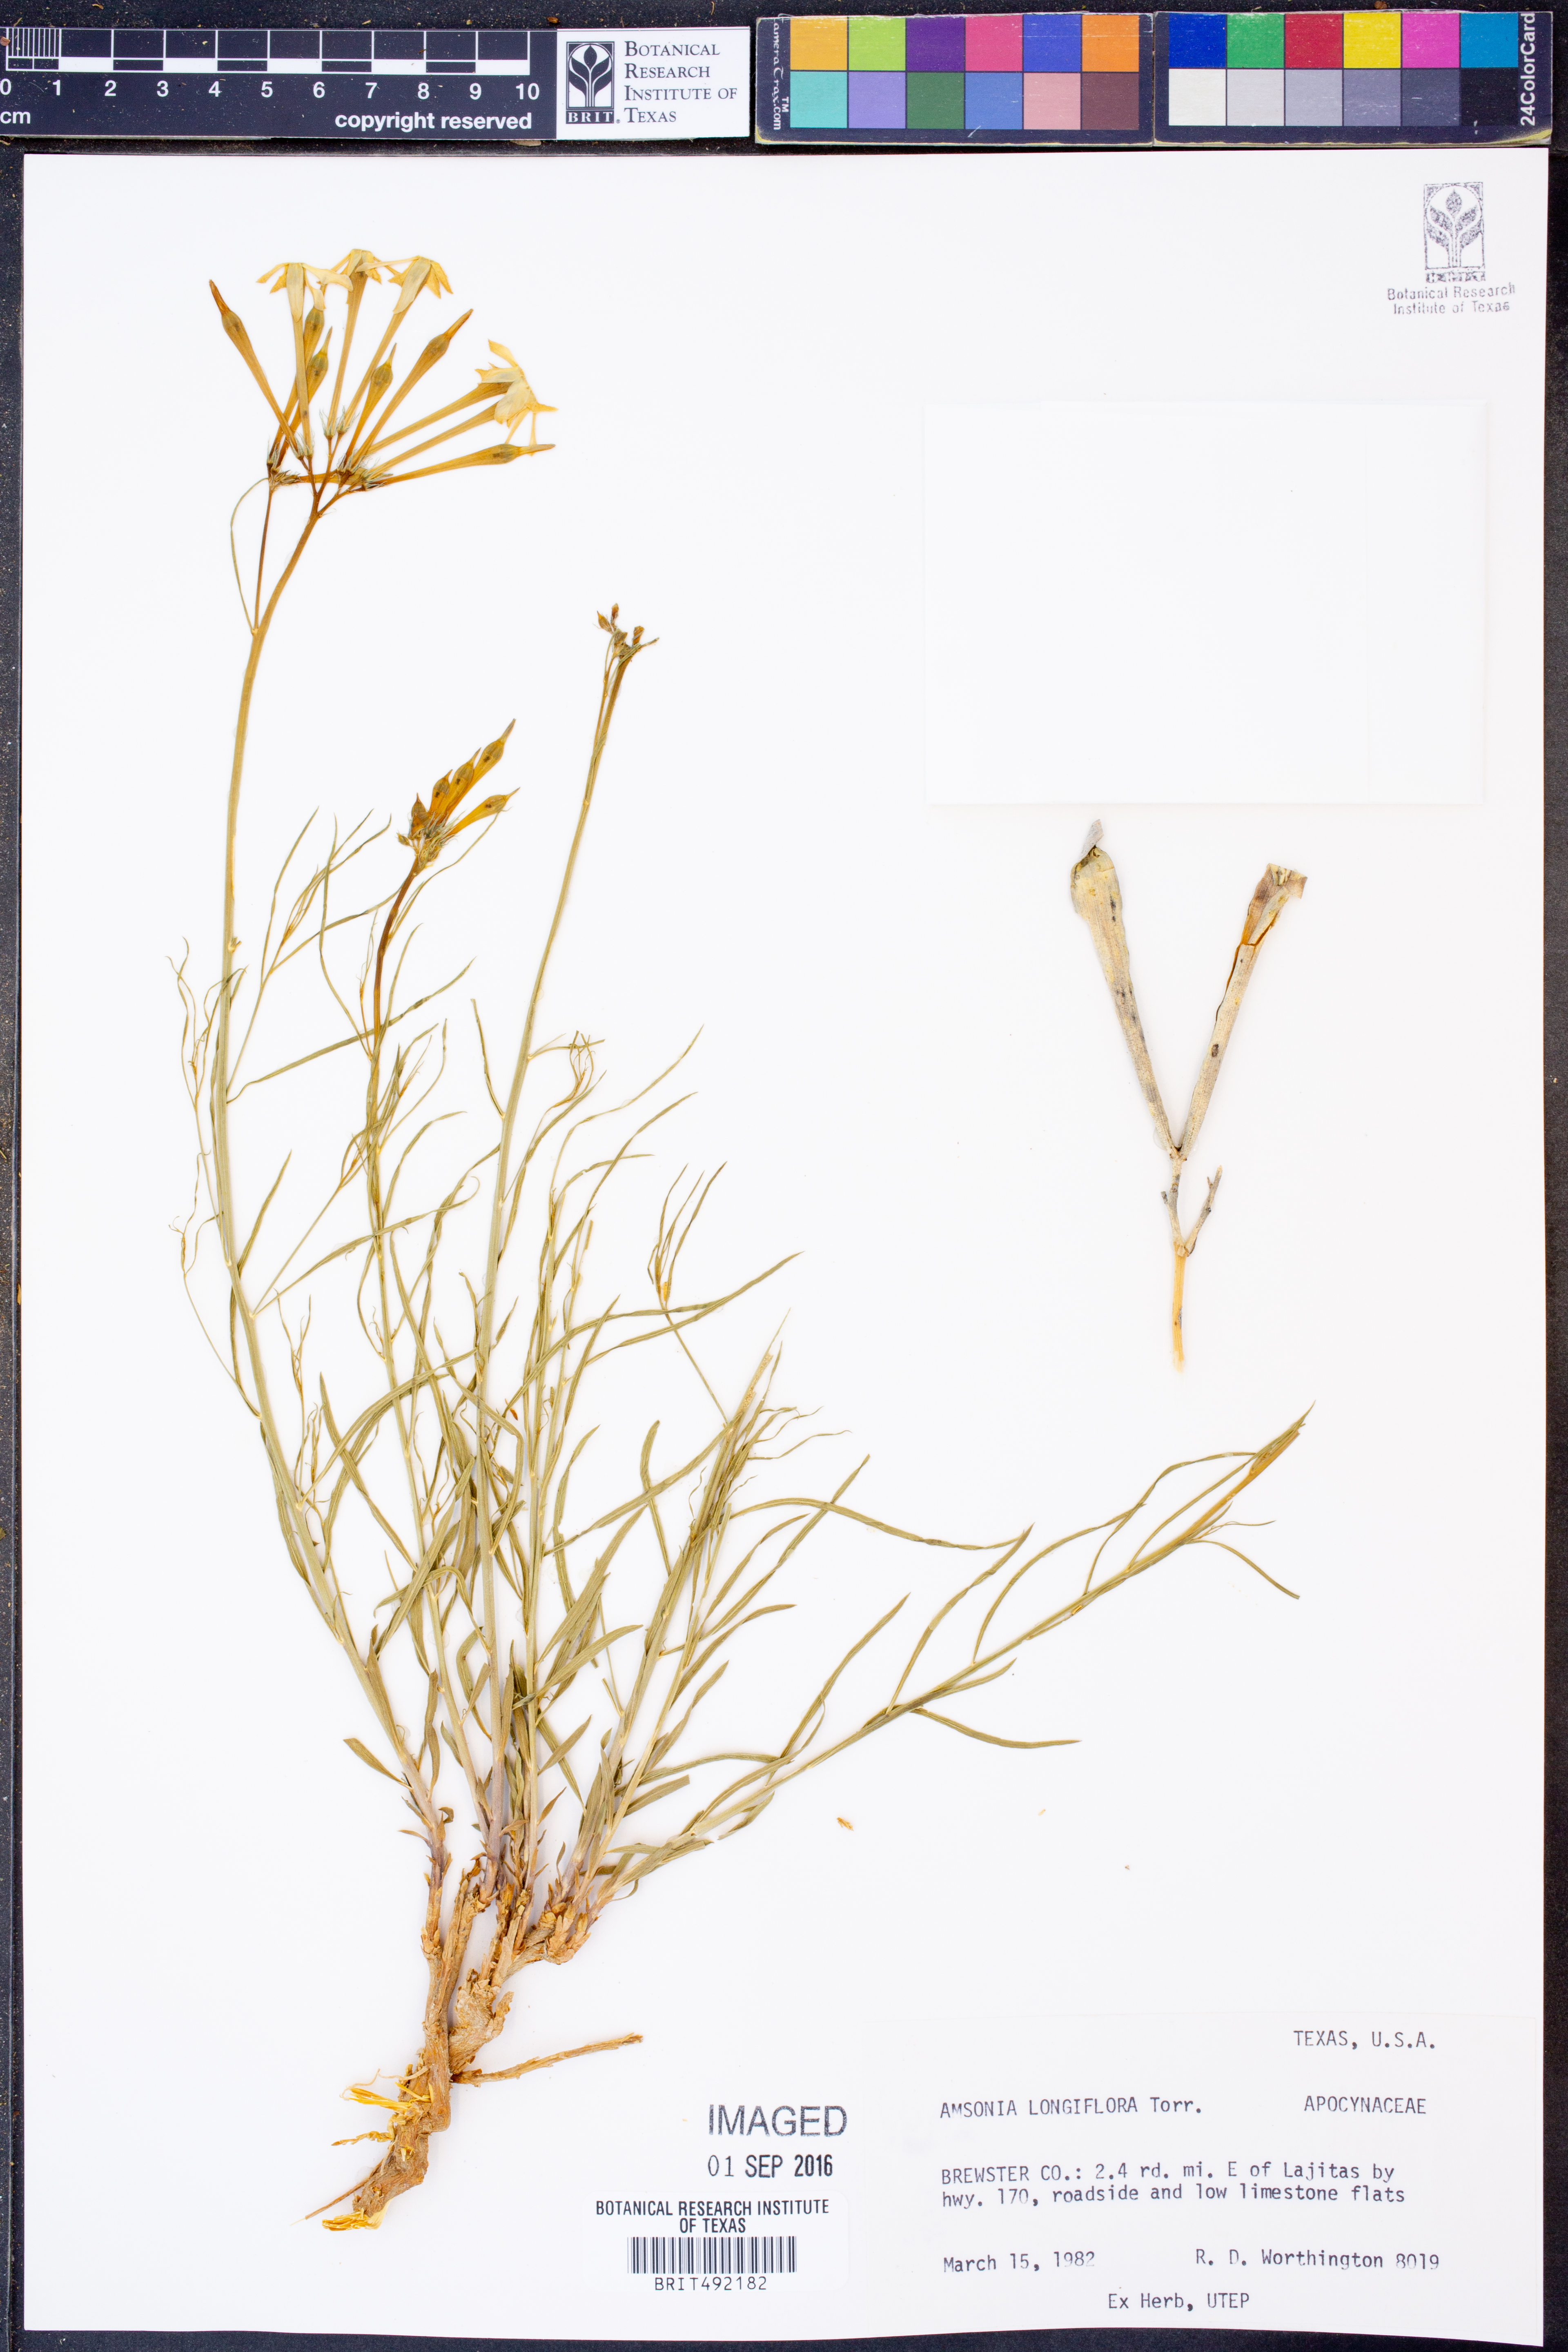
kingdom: Plantae
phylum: Tracheophyta
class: Magnoliopsida
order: Gentianales
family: Apocynaceae
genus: Amsonia
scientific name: Amsonia longiflora
